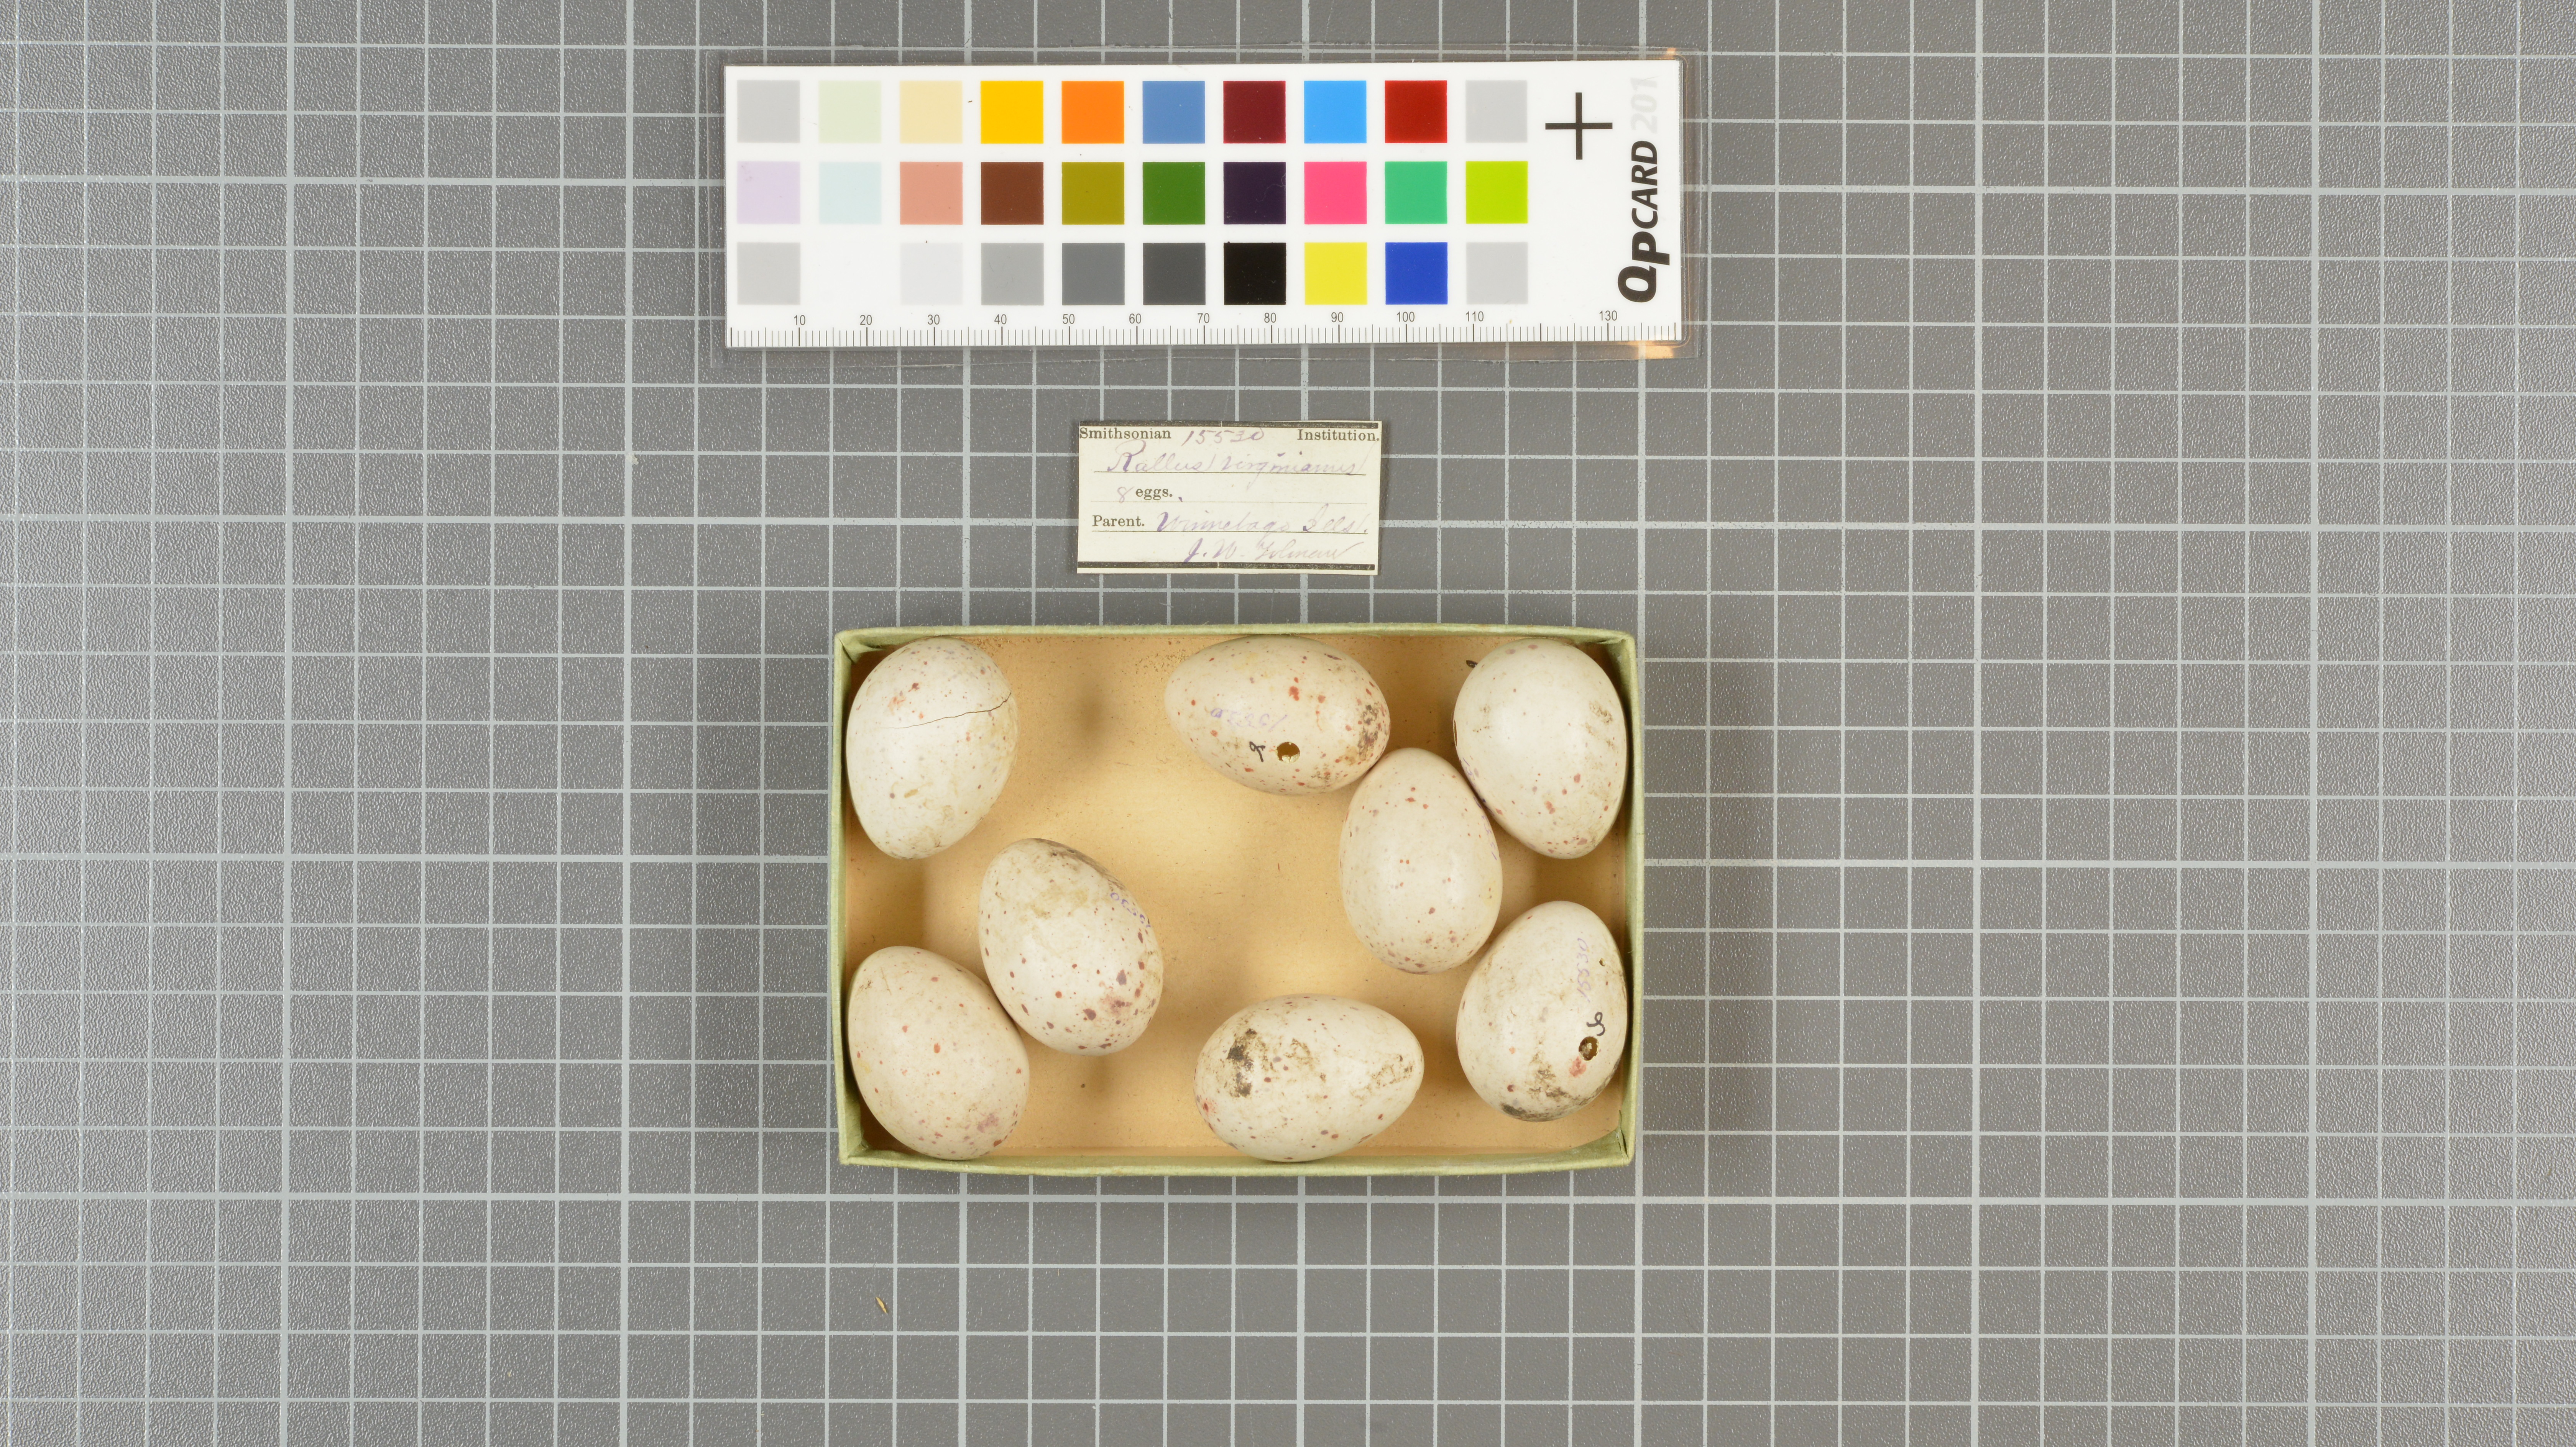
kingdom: Animalia
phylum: Chordata
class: Aves
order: Gruiformes
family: Rallidae
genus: Rallus
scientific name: Rallus limicola
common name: Virginia rail
